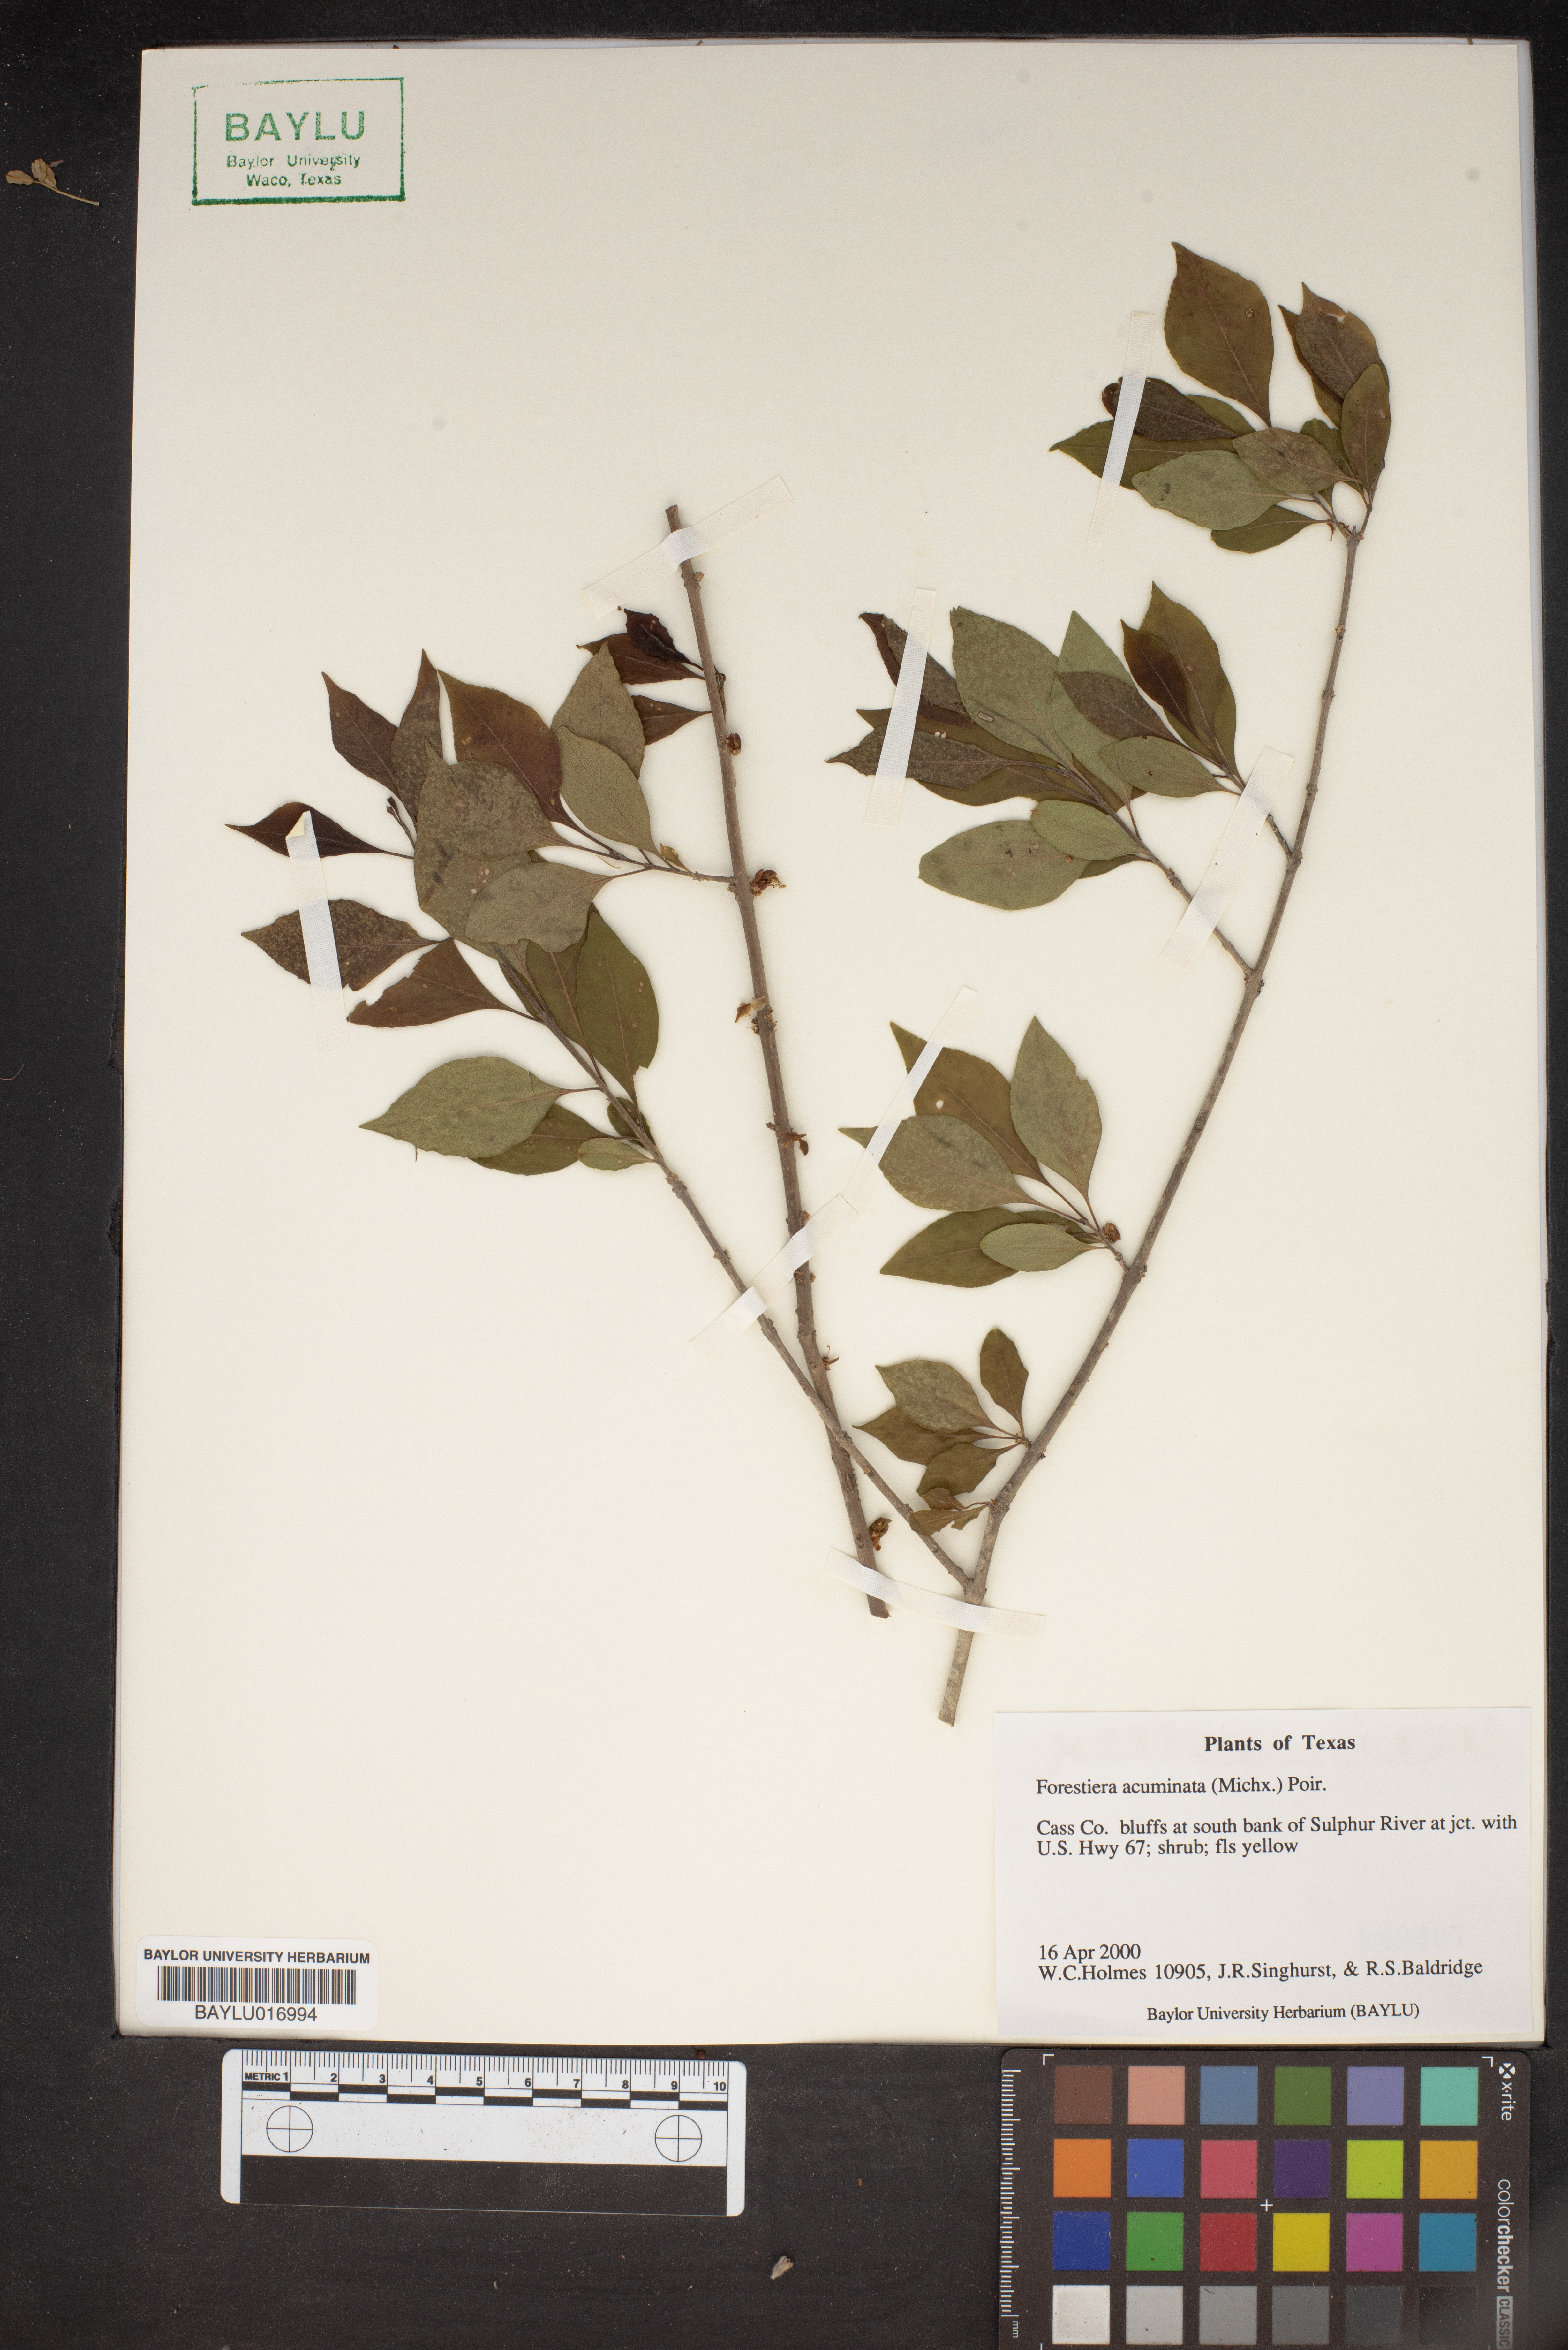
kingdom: Plantae
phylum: Tracheophyta
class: Magnoliopsida
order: Lamiales
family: Oleaceae
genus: Forestiera
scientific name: Forestiera acuminata
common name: Swamp-privet
